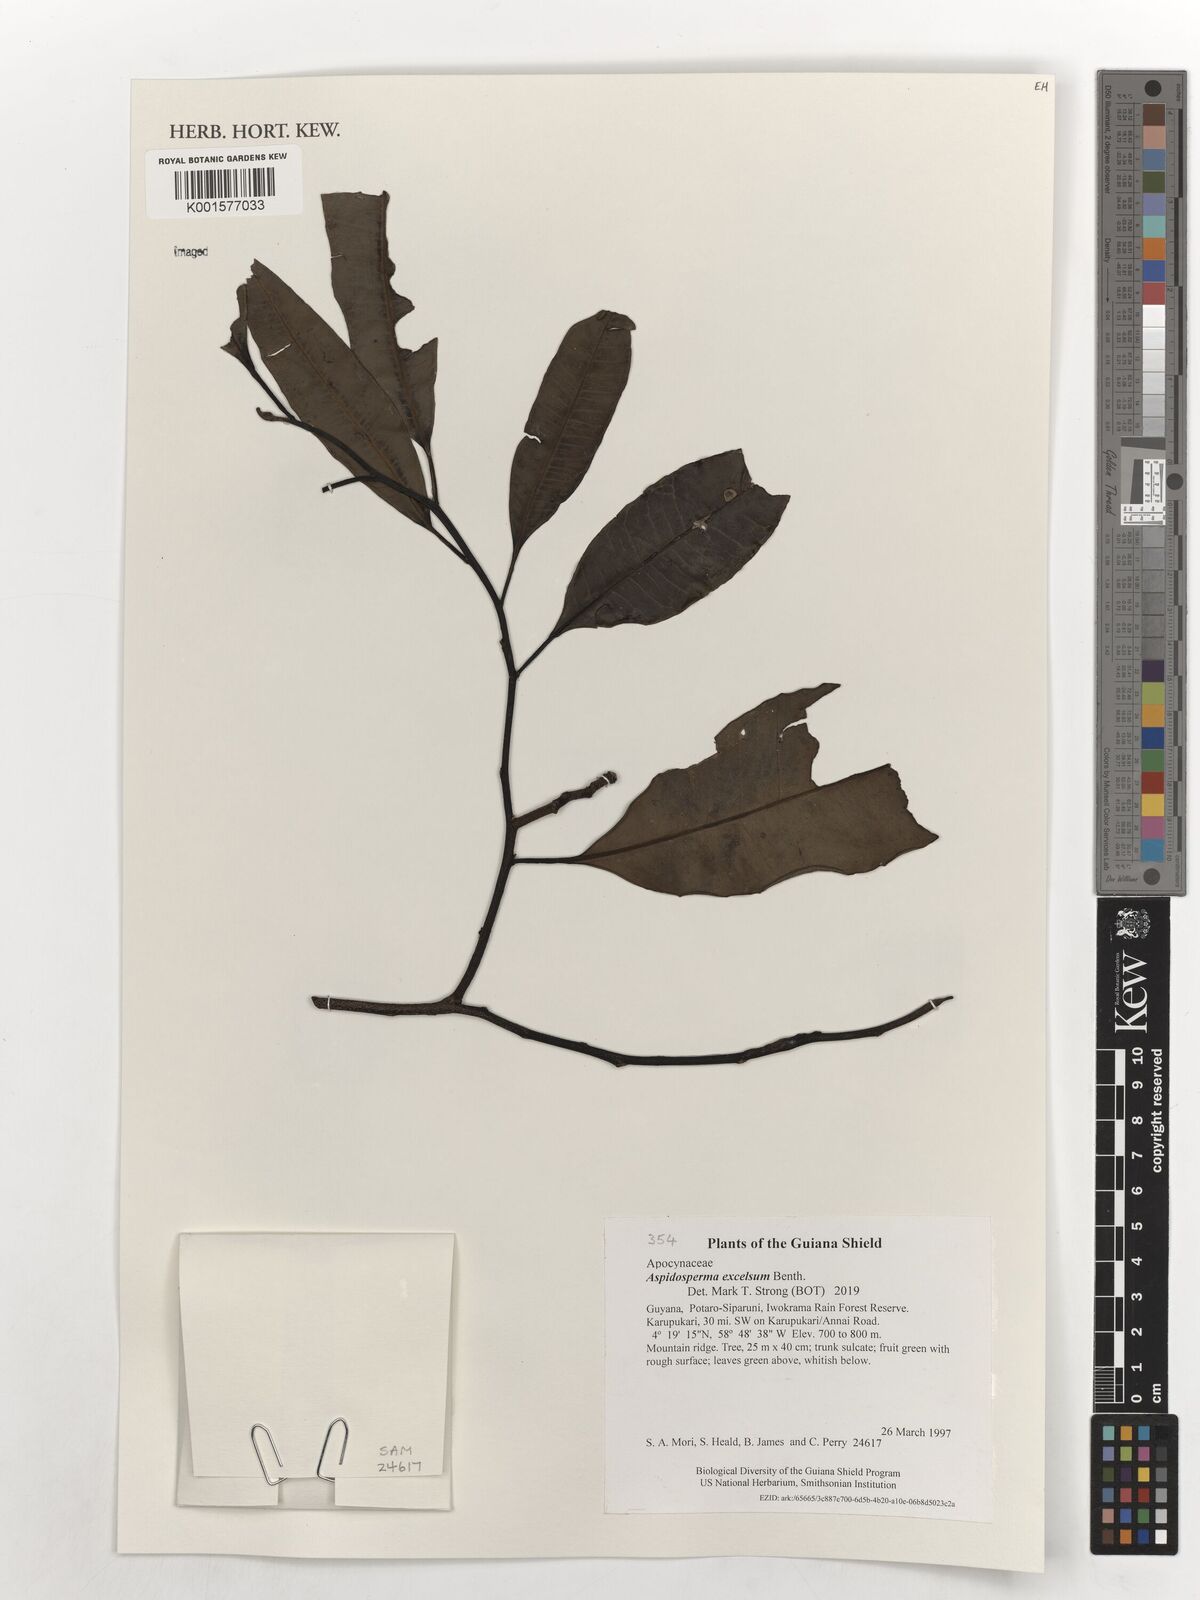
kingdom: Plantae
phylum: Tracheophyta
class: Magnoliopsida
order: Gentianales
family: Apocynaceae
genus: Aspidosperma
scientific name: Aspidosperma excelsum
